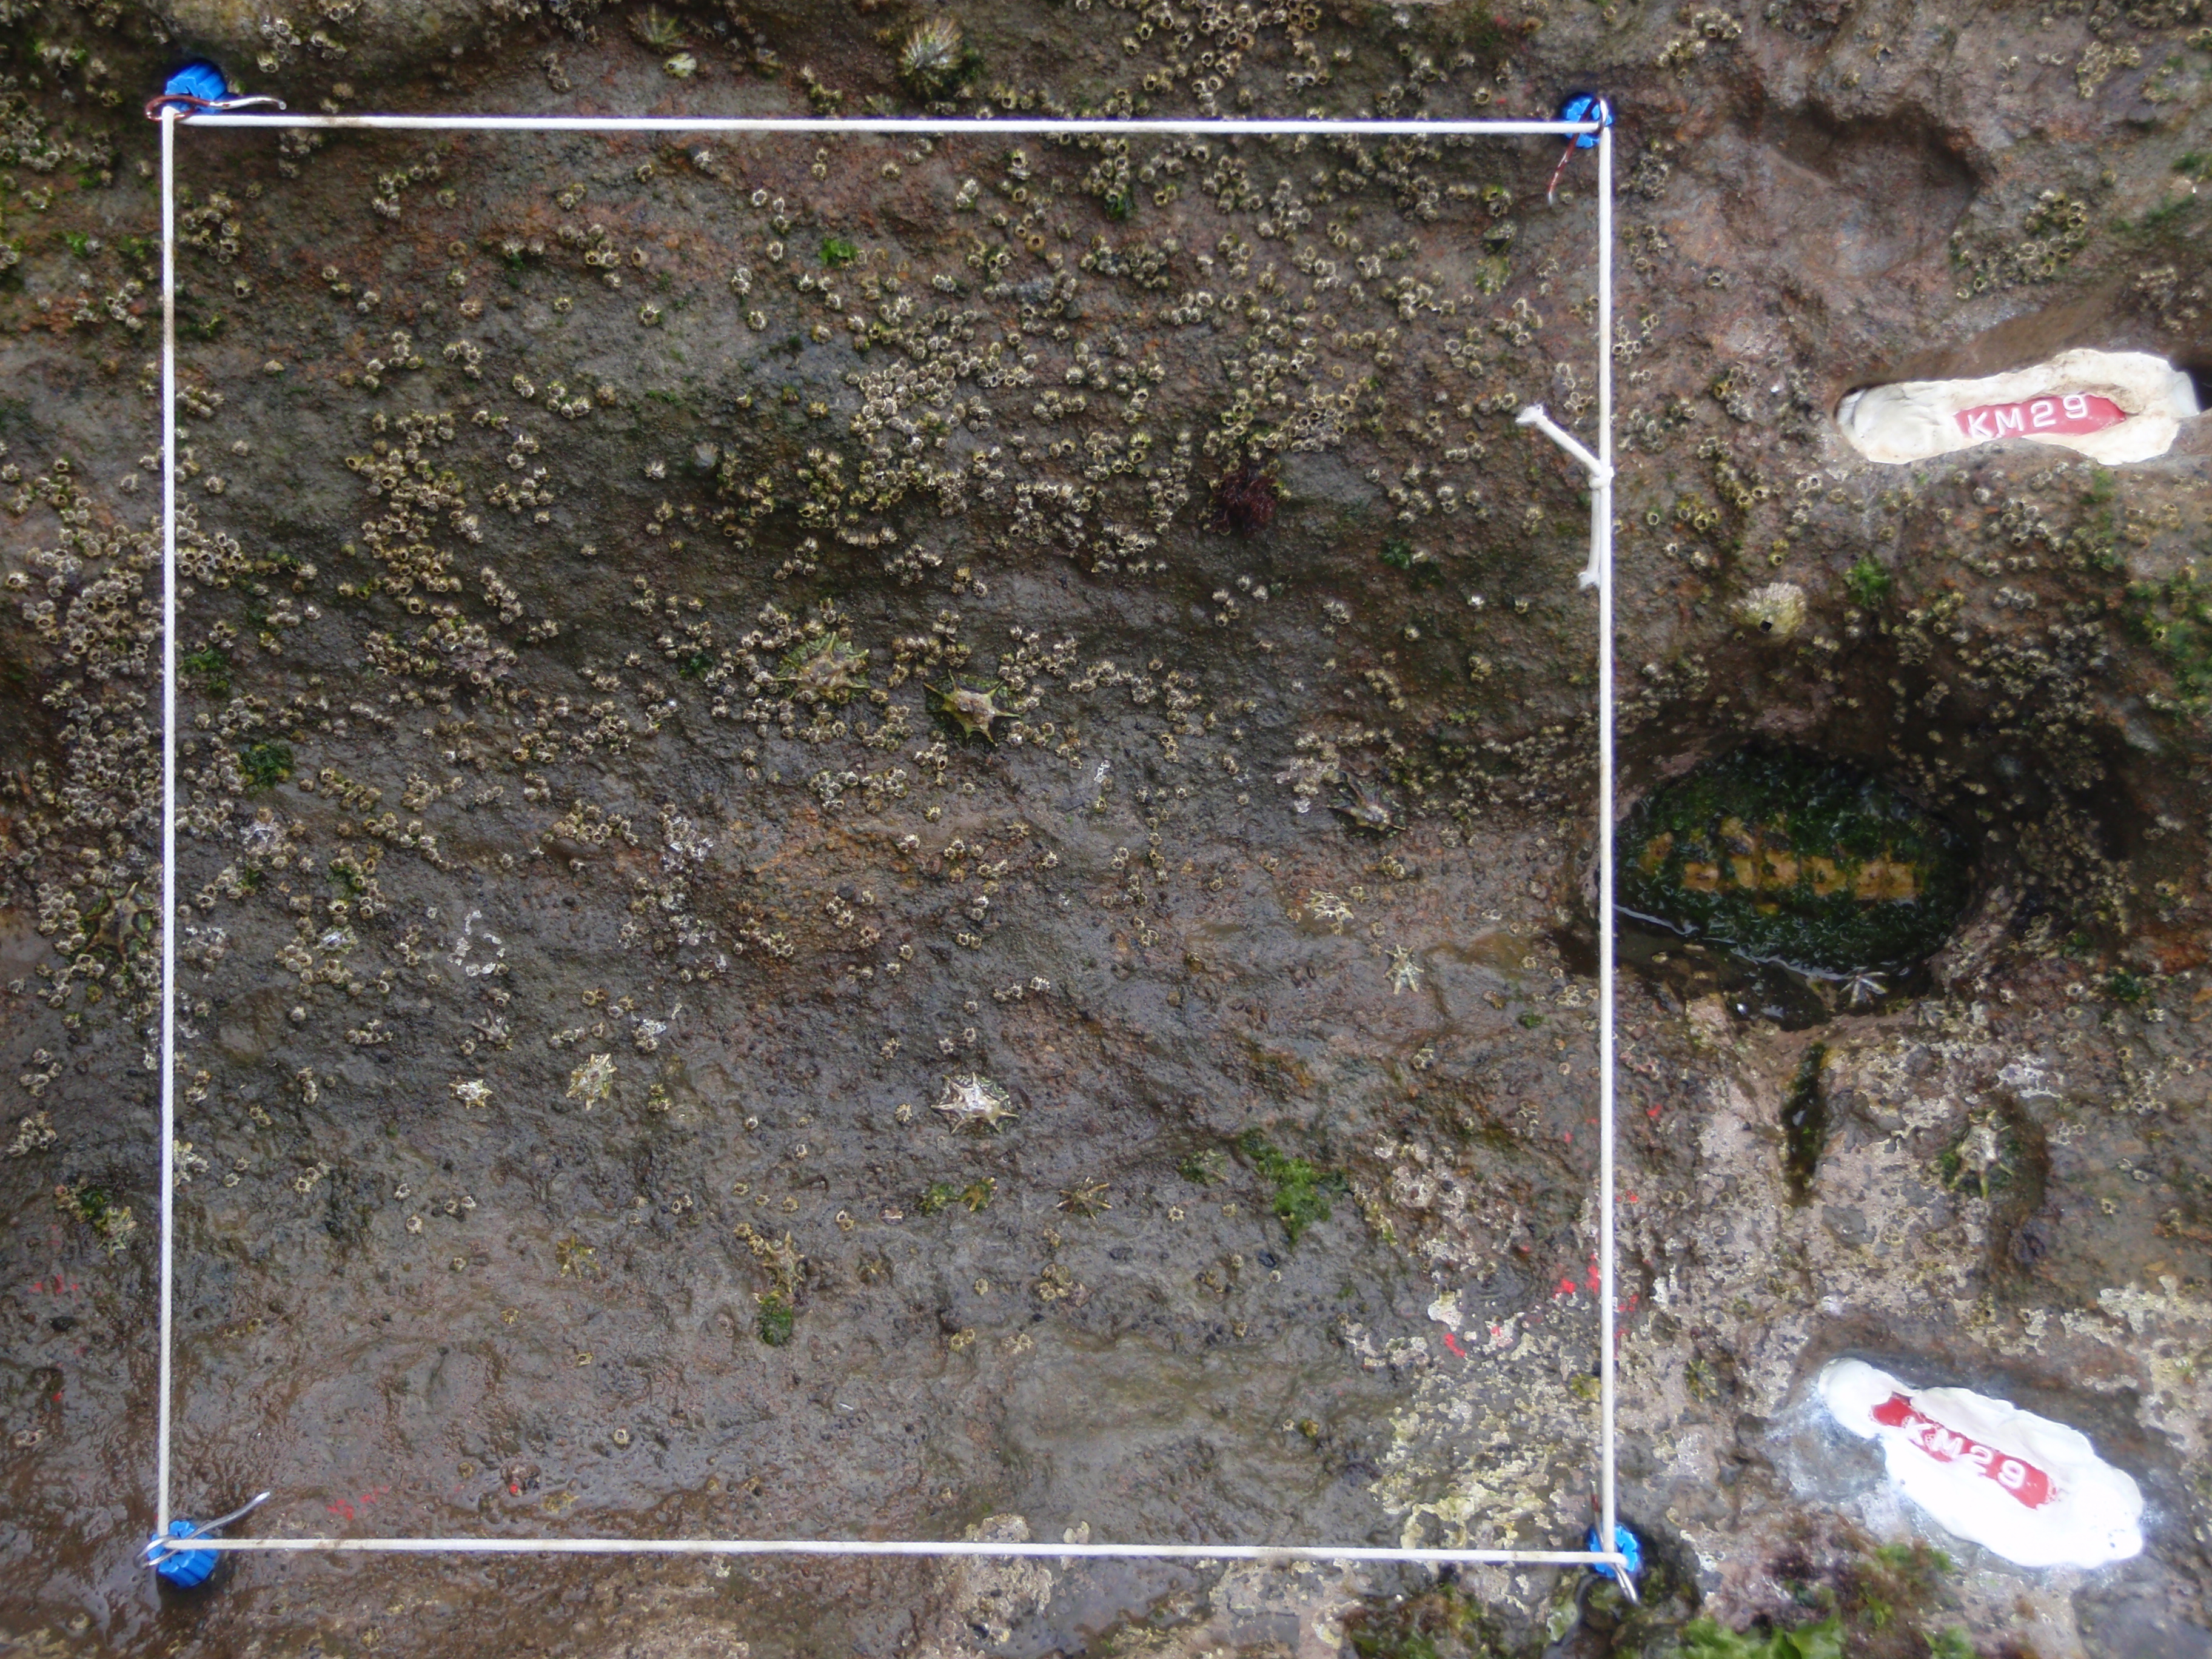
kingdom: Animalia
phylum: Arthropoda
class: Maxillopoda
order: Sessilia
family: Chthamalidae
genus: Chthamalus
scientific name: Chthamalus challengeri
